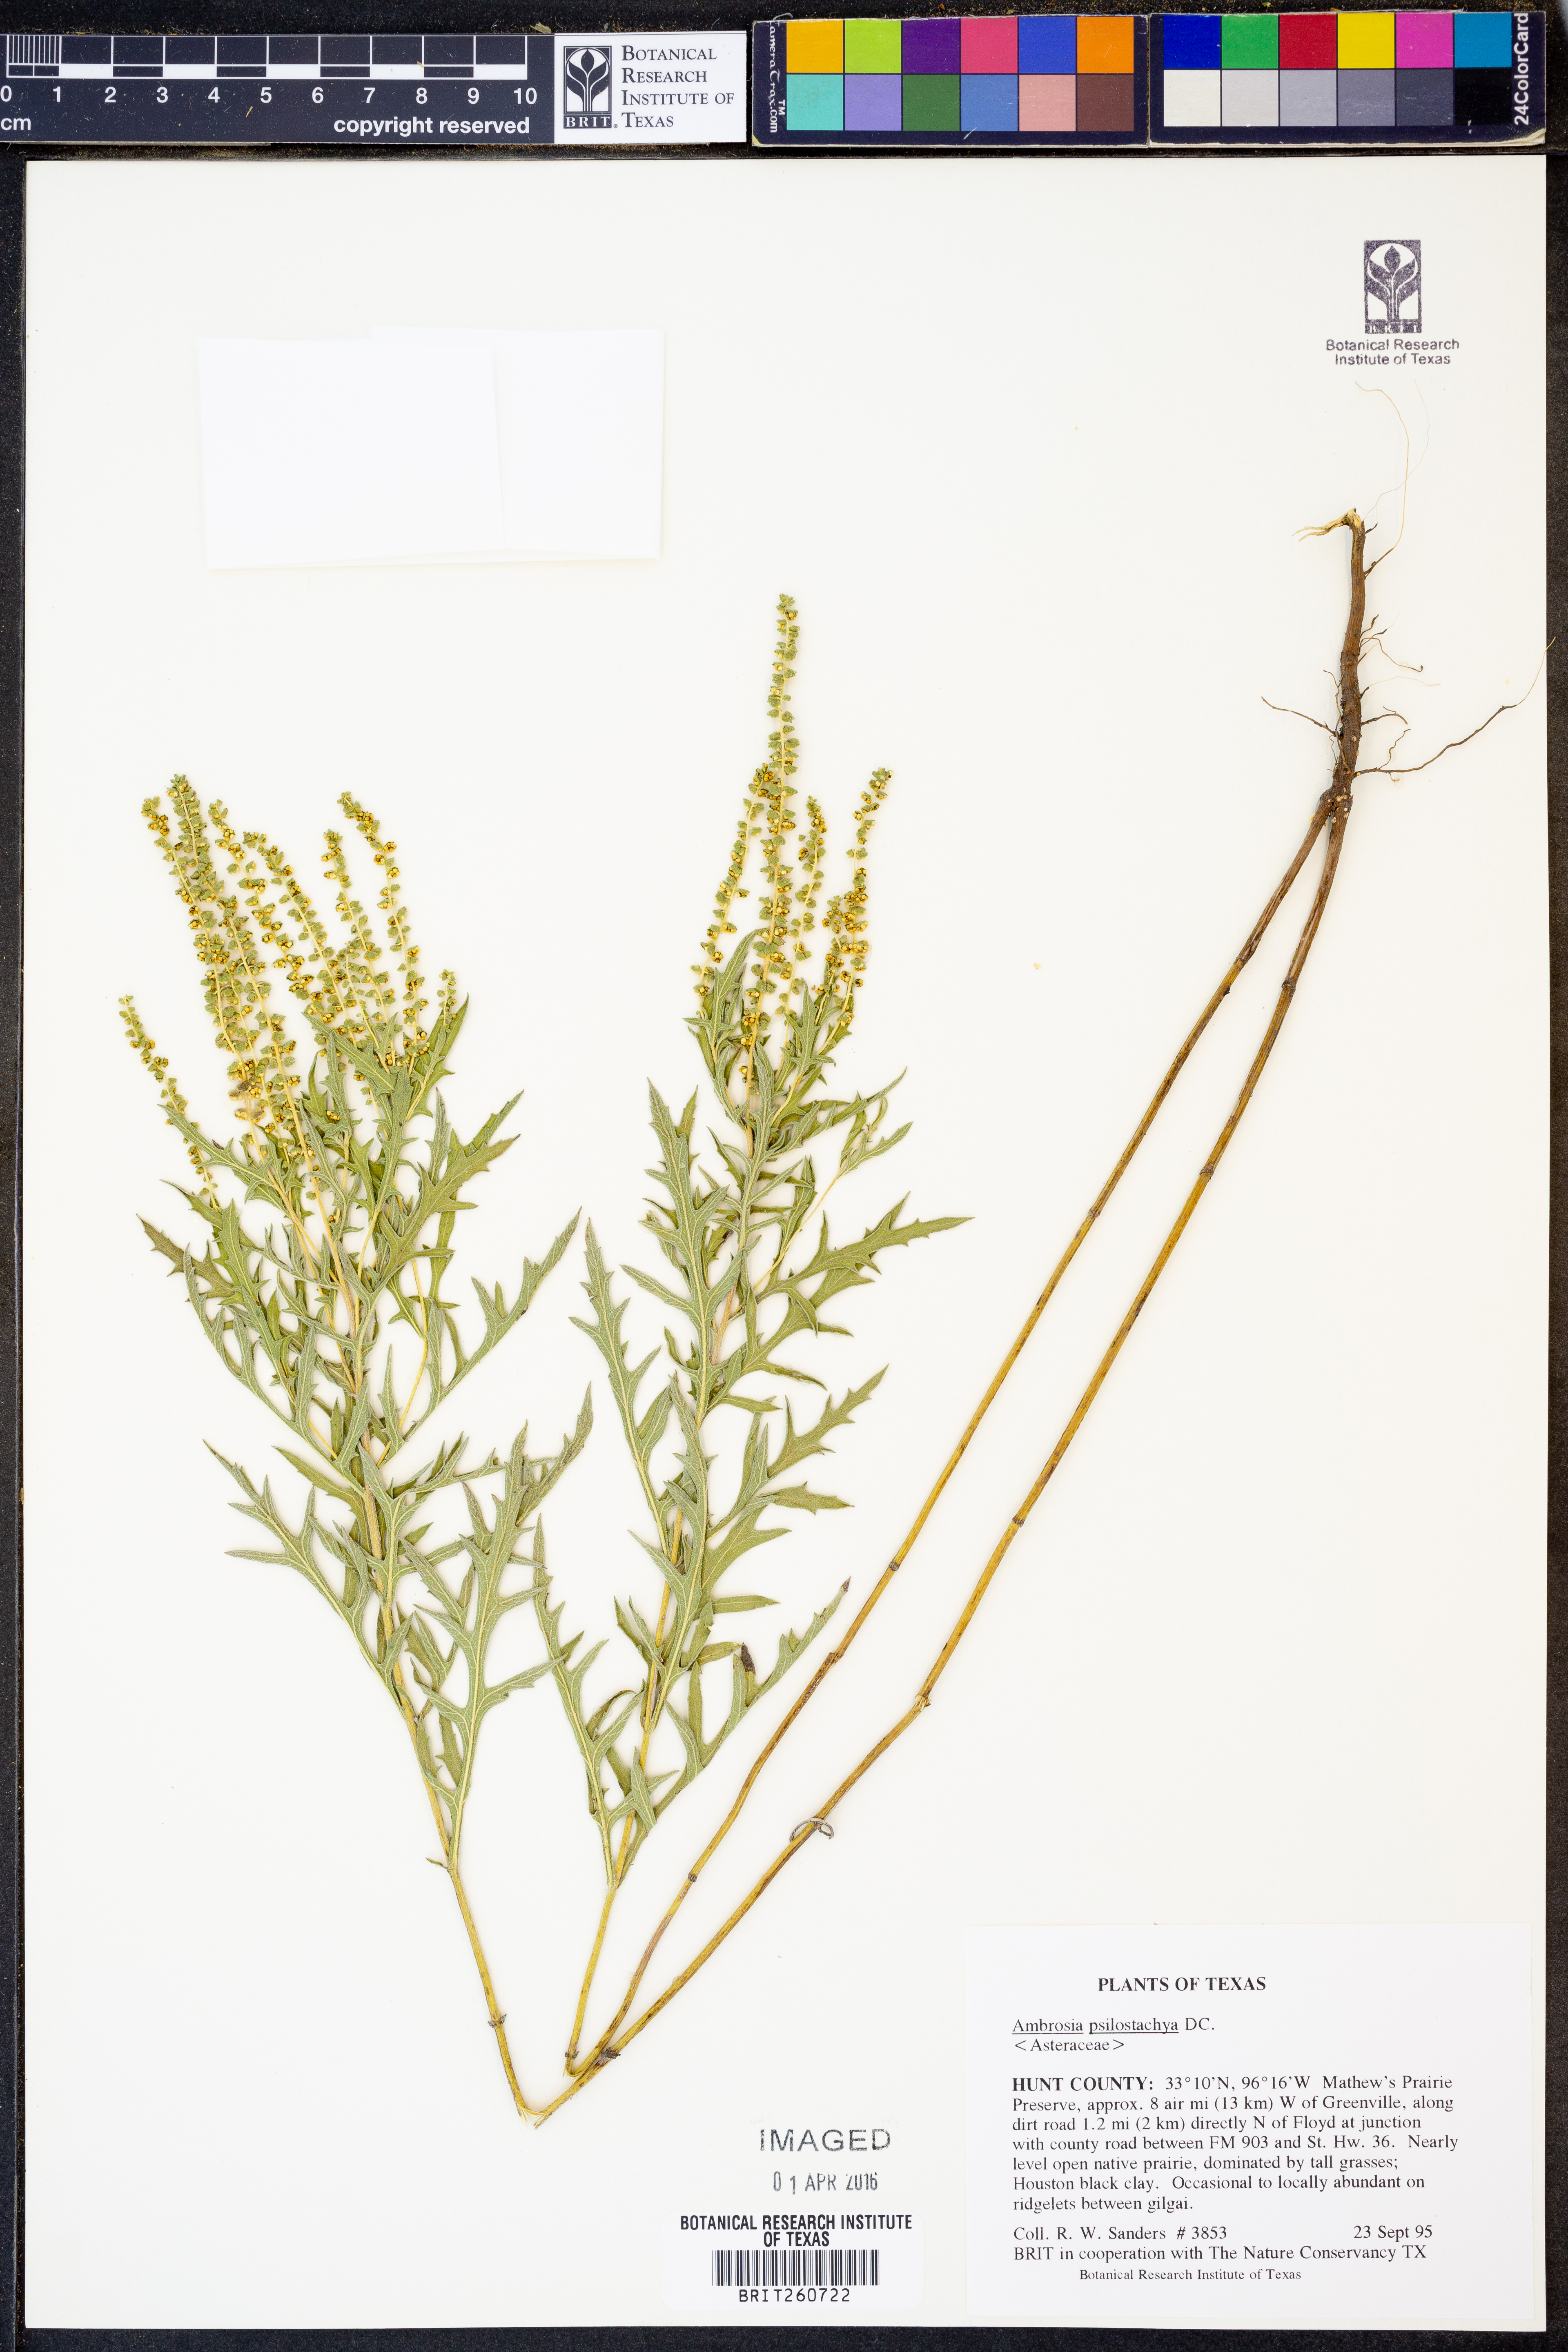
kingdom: Plantae
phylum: Tracheophyta
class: Magnoliopsida
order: Asterales
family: Asteraceae
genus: Ambrosia
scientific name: Ambrosia psilostachya
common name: Perennial ragweed
